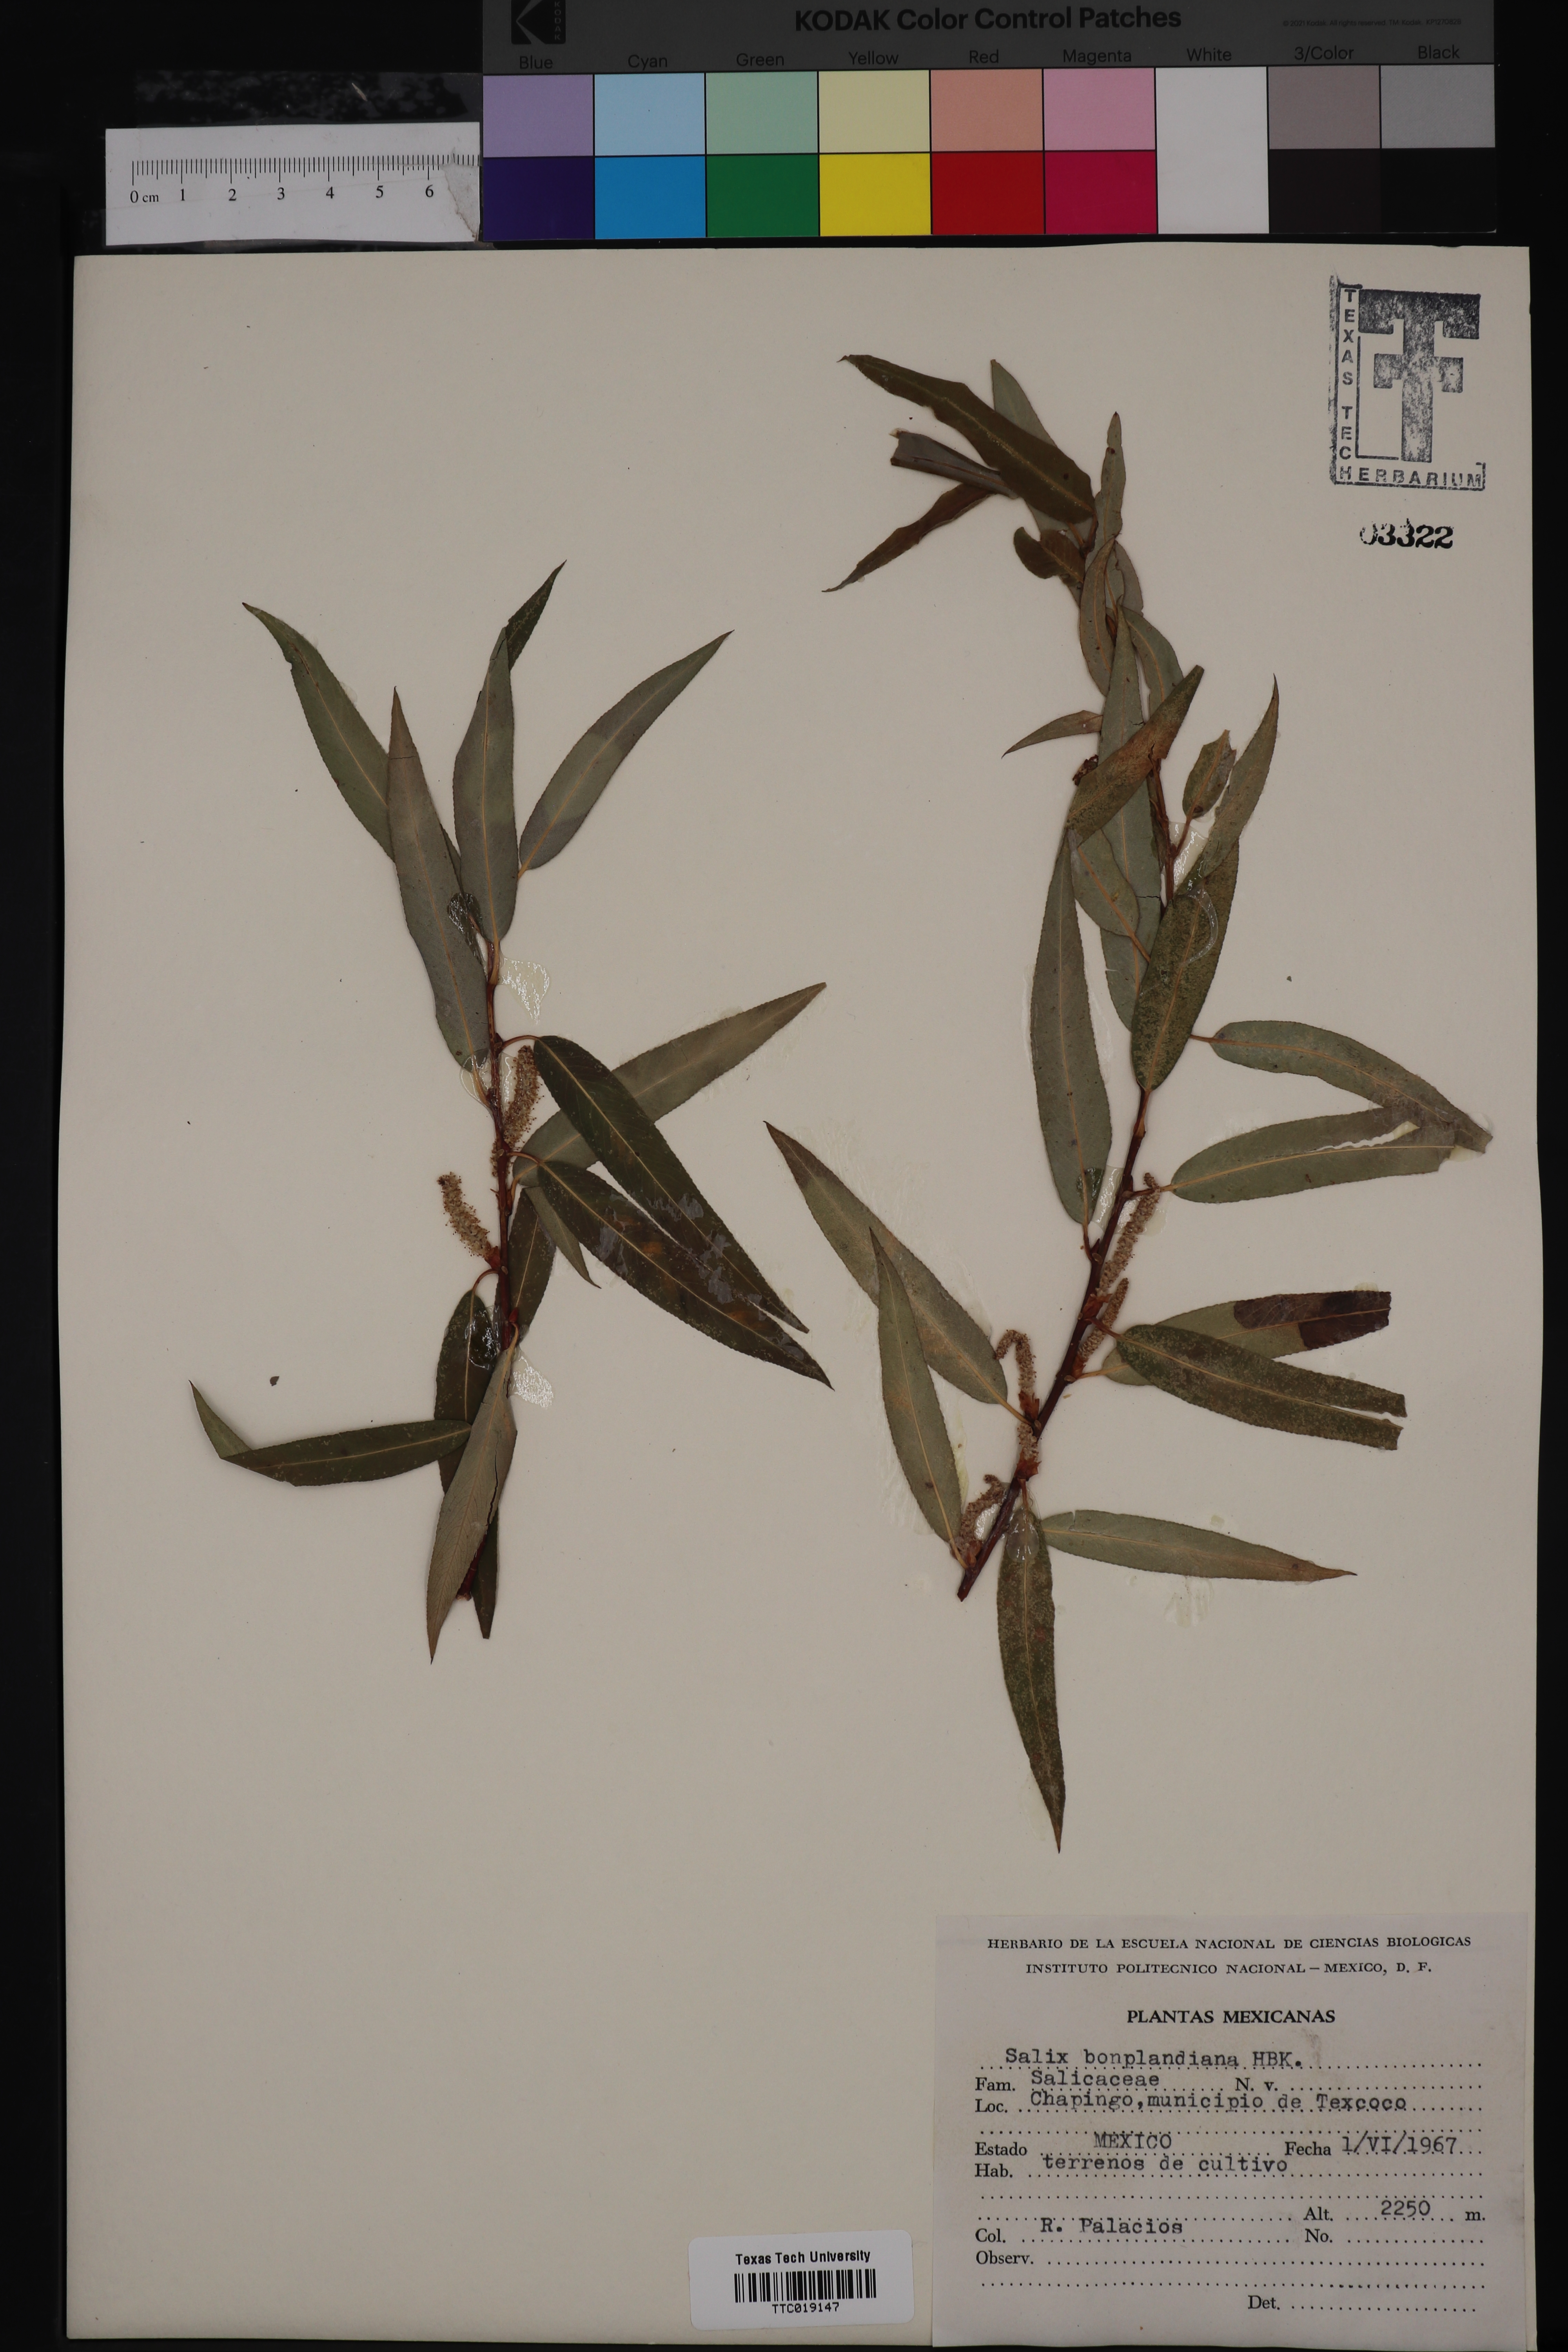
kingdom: Plantae
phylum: Tracheophyta
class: Magnoliopsida
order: Malpighiales
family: Salicaceae
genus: Salix
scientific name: Salix bonplandiana
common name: Bonpland’s willow
